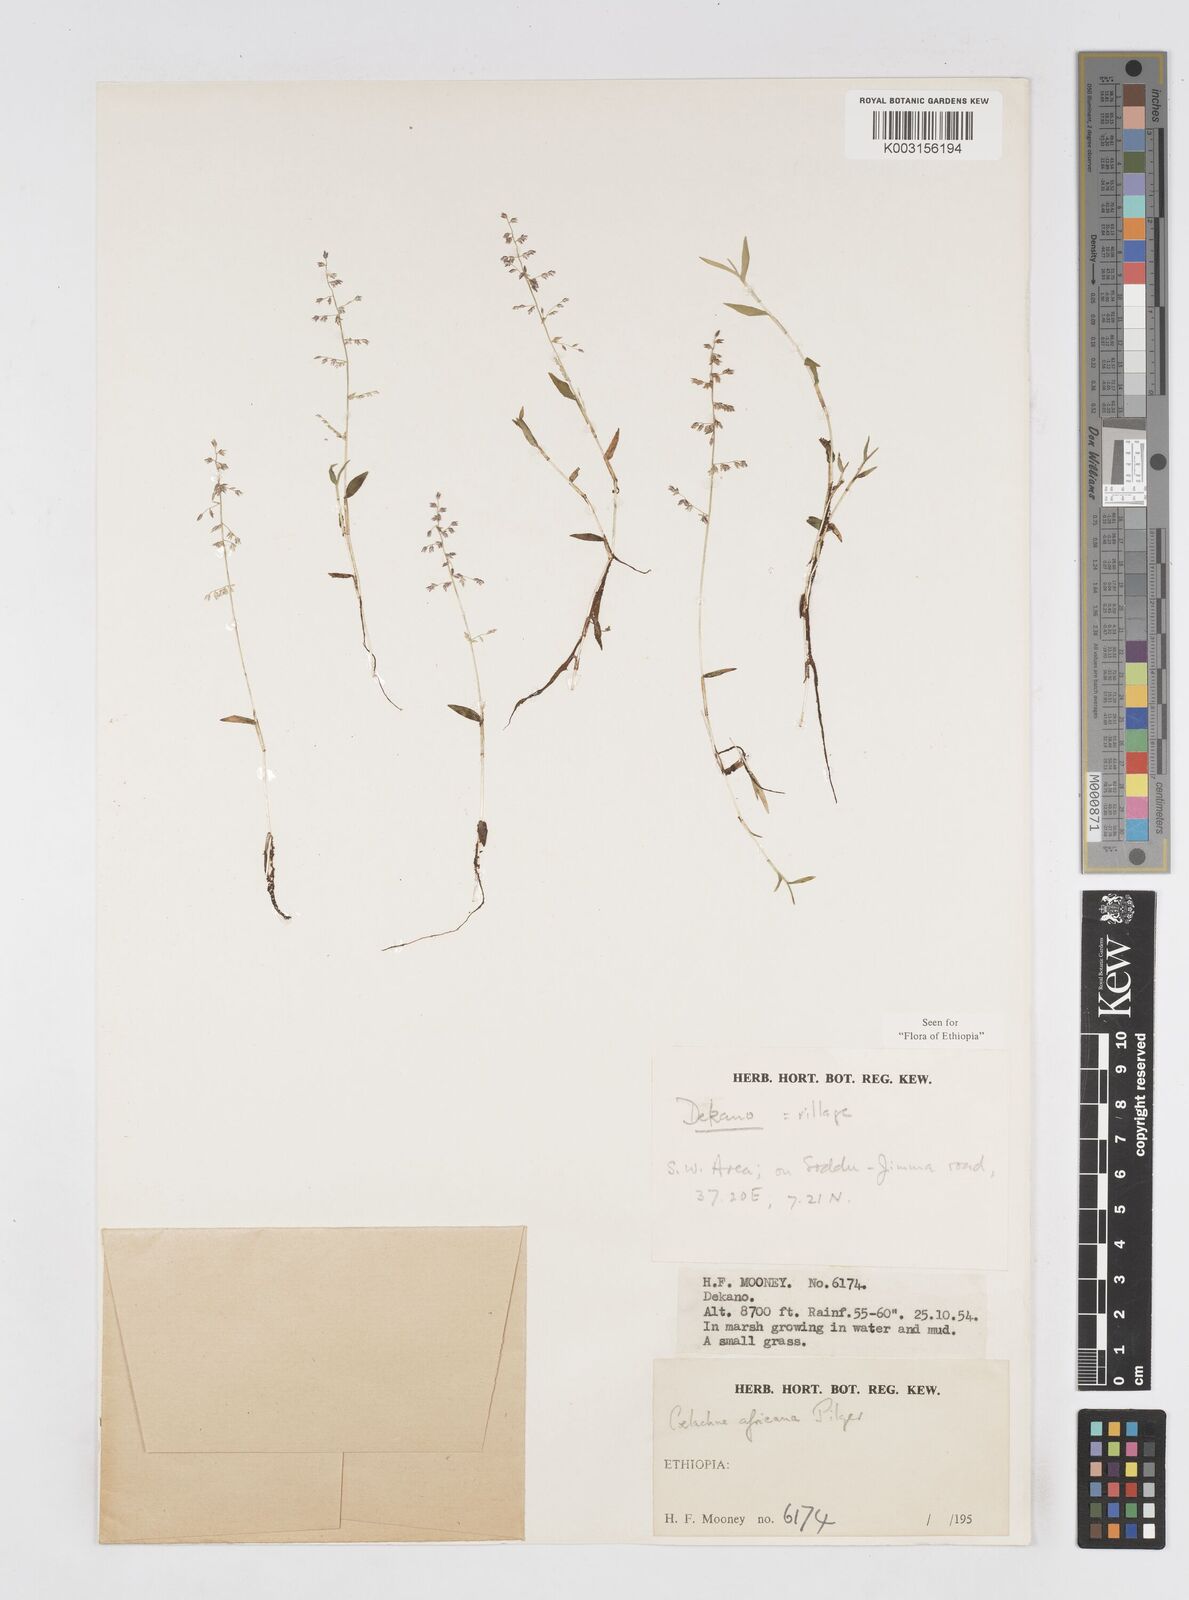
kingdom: Plantae
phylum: Tracheophyta
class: Liliopsida
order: Poales
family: Poaceae
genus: Coelachne
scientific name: Coelachne africana
